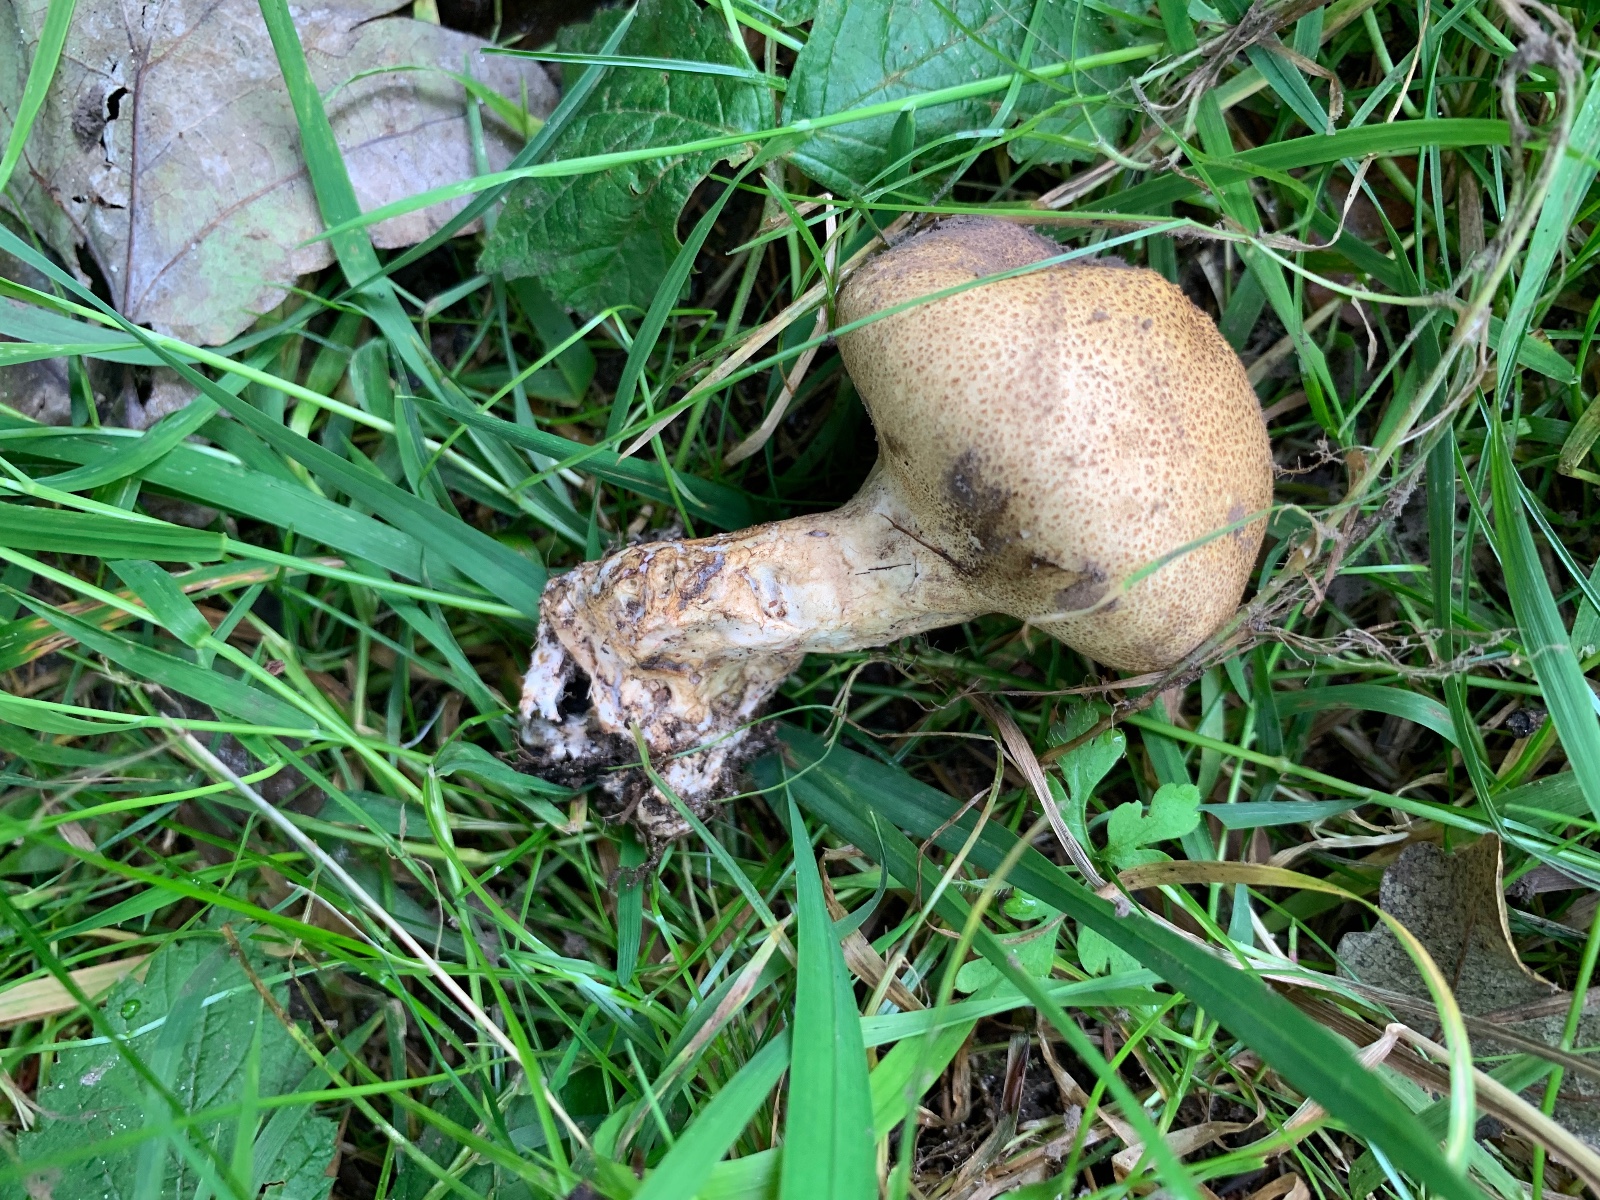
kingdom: Fungi
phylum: Basidiomycota
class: Agaricomycetes
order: Boletales
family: Sclerodermataceae
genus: Scleroderma
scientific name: Scleroderma verrucosum
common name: stilket bruskbold
